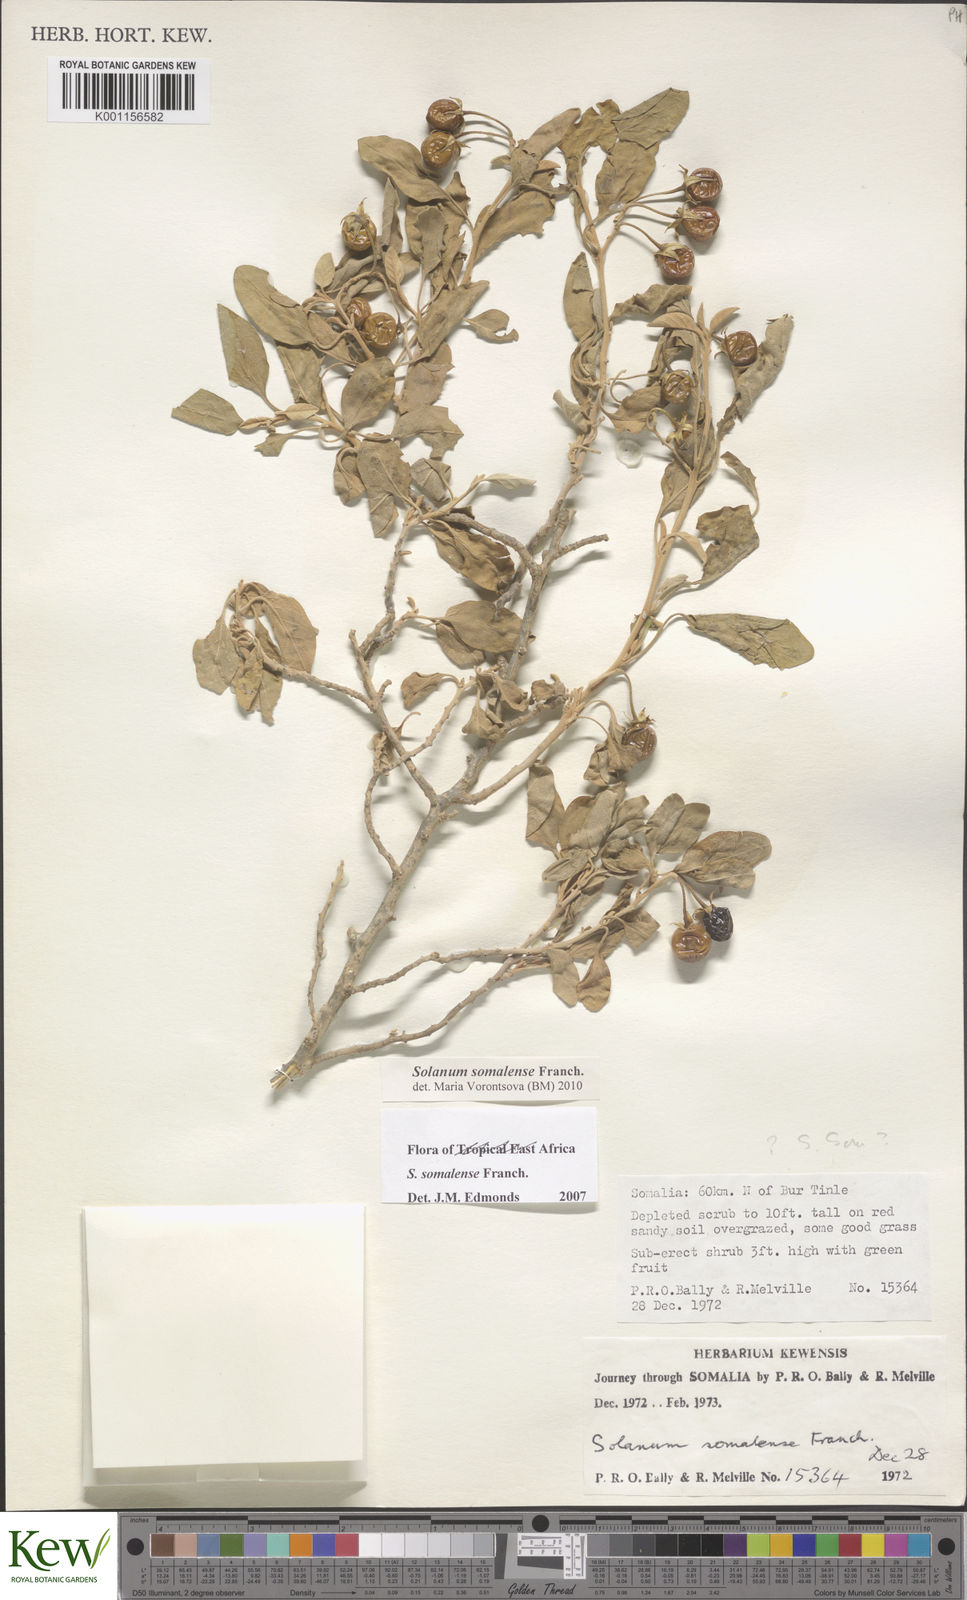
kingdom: Plantae
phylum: Tracheophyta
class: Magnoliopsida
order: Solanales
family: Solanaceae
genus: Solanum
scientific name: Solanum somalense
